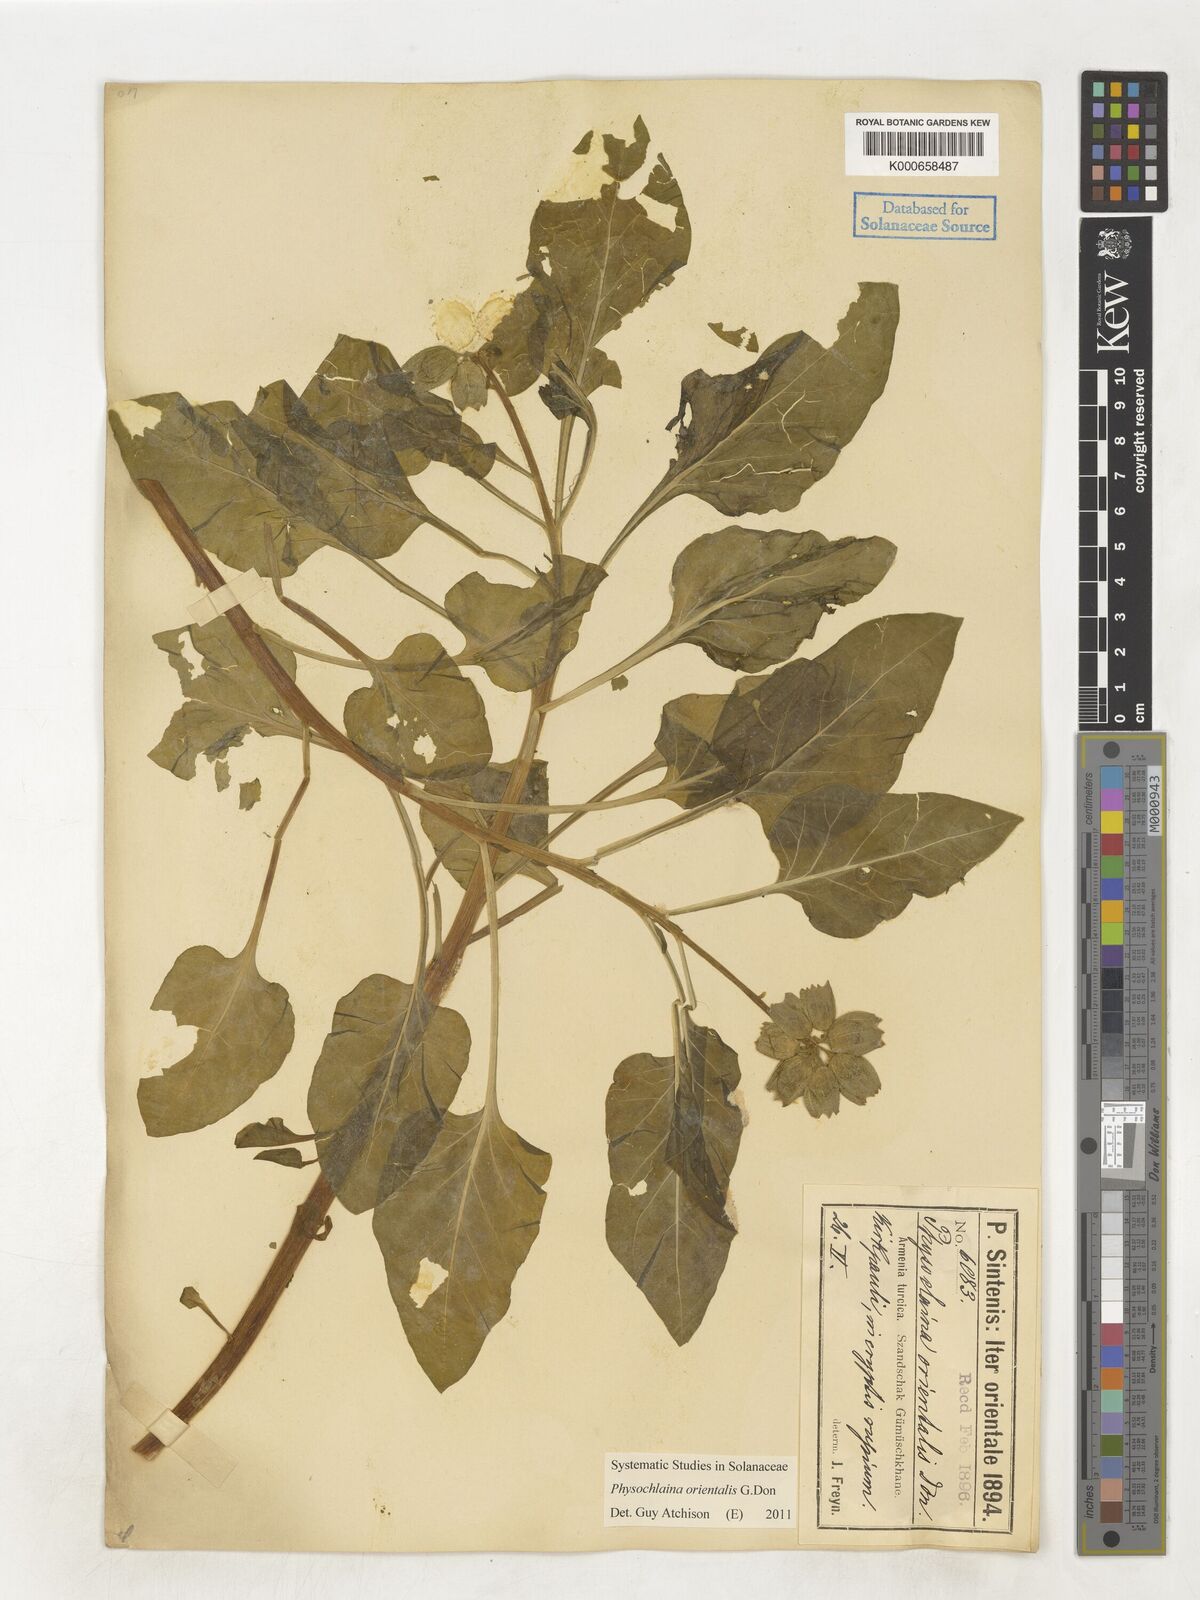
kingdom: Plantae
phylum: Tracheophyta
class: Magnoliopsida
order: Solanales
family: Solanaceae
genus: Physochlaina
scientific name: Physochlaina orientalis
